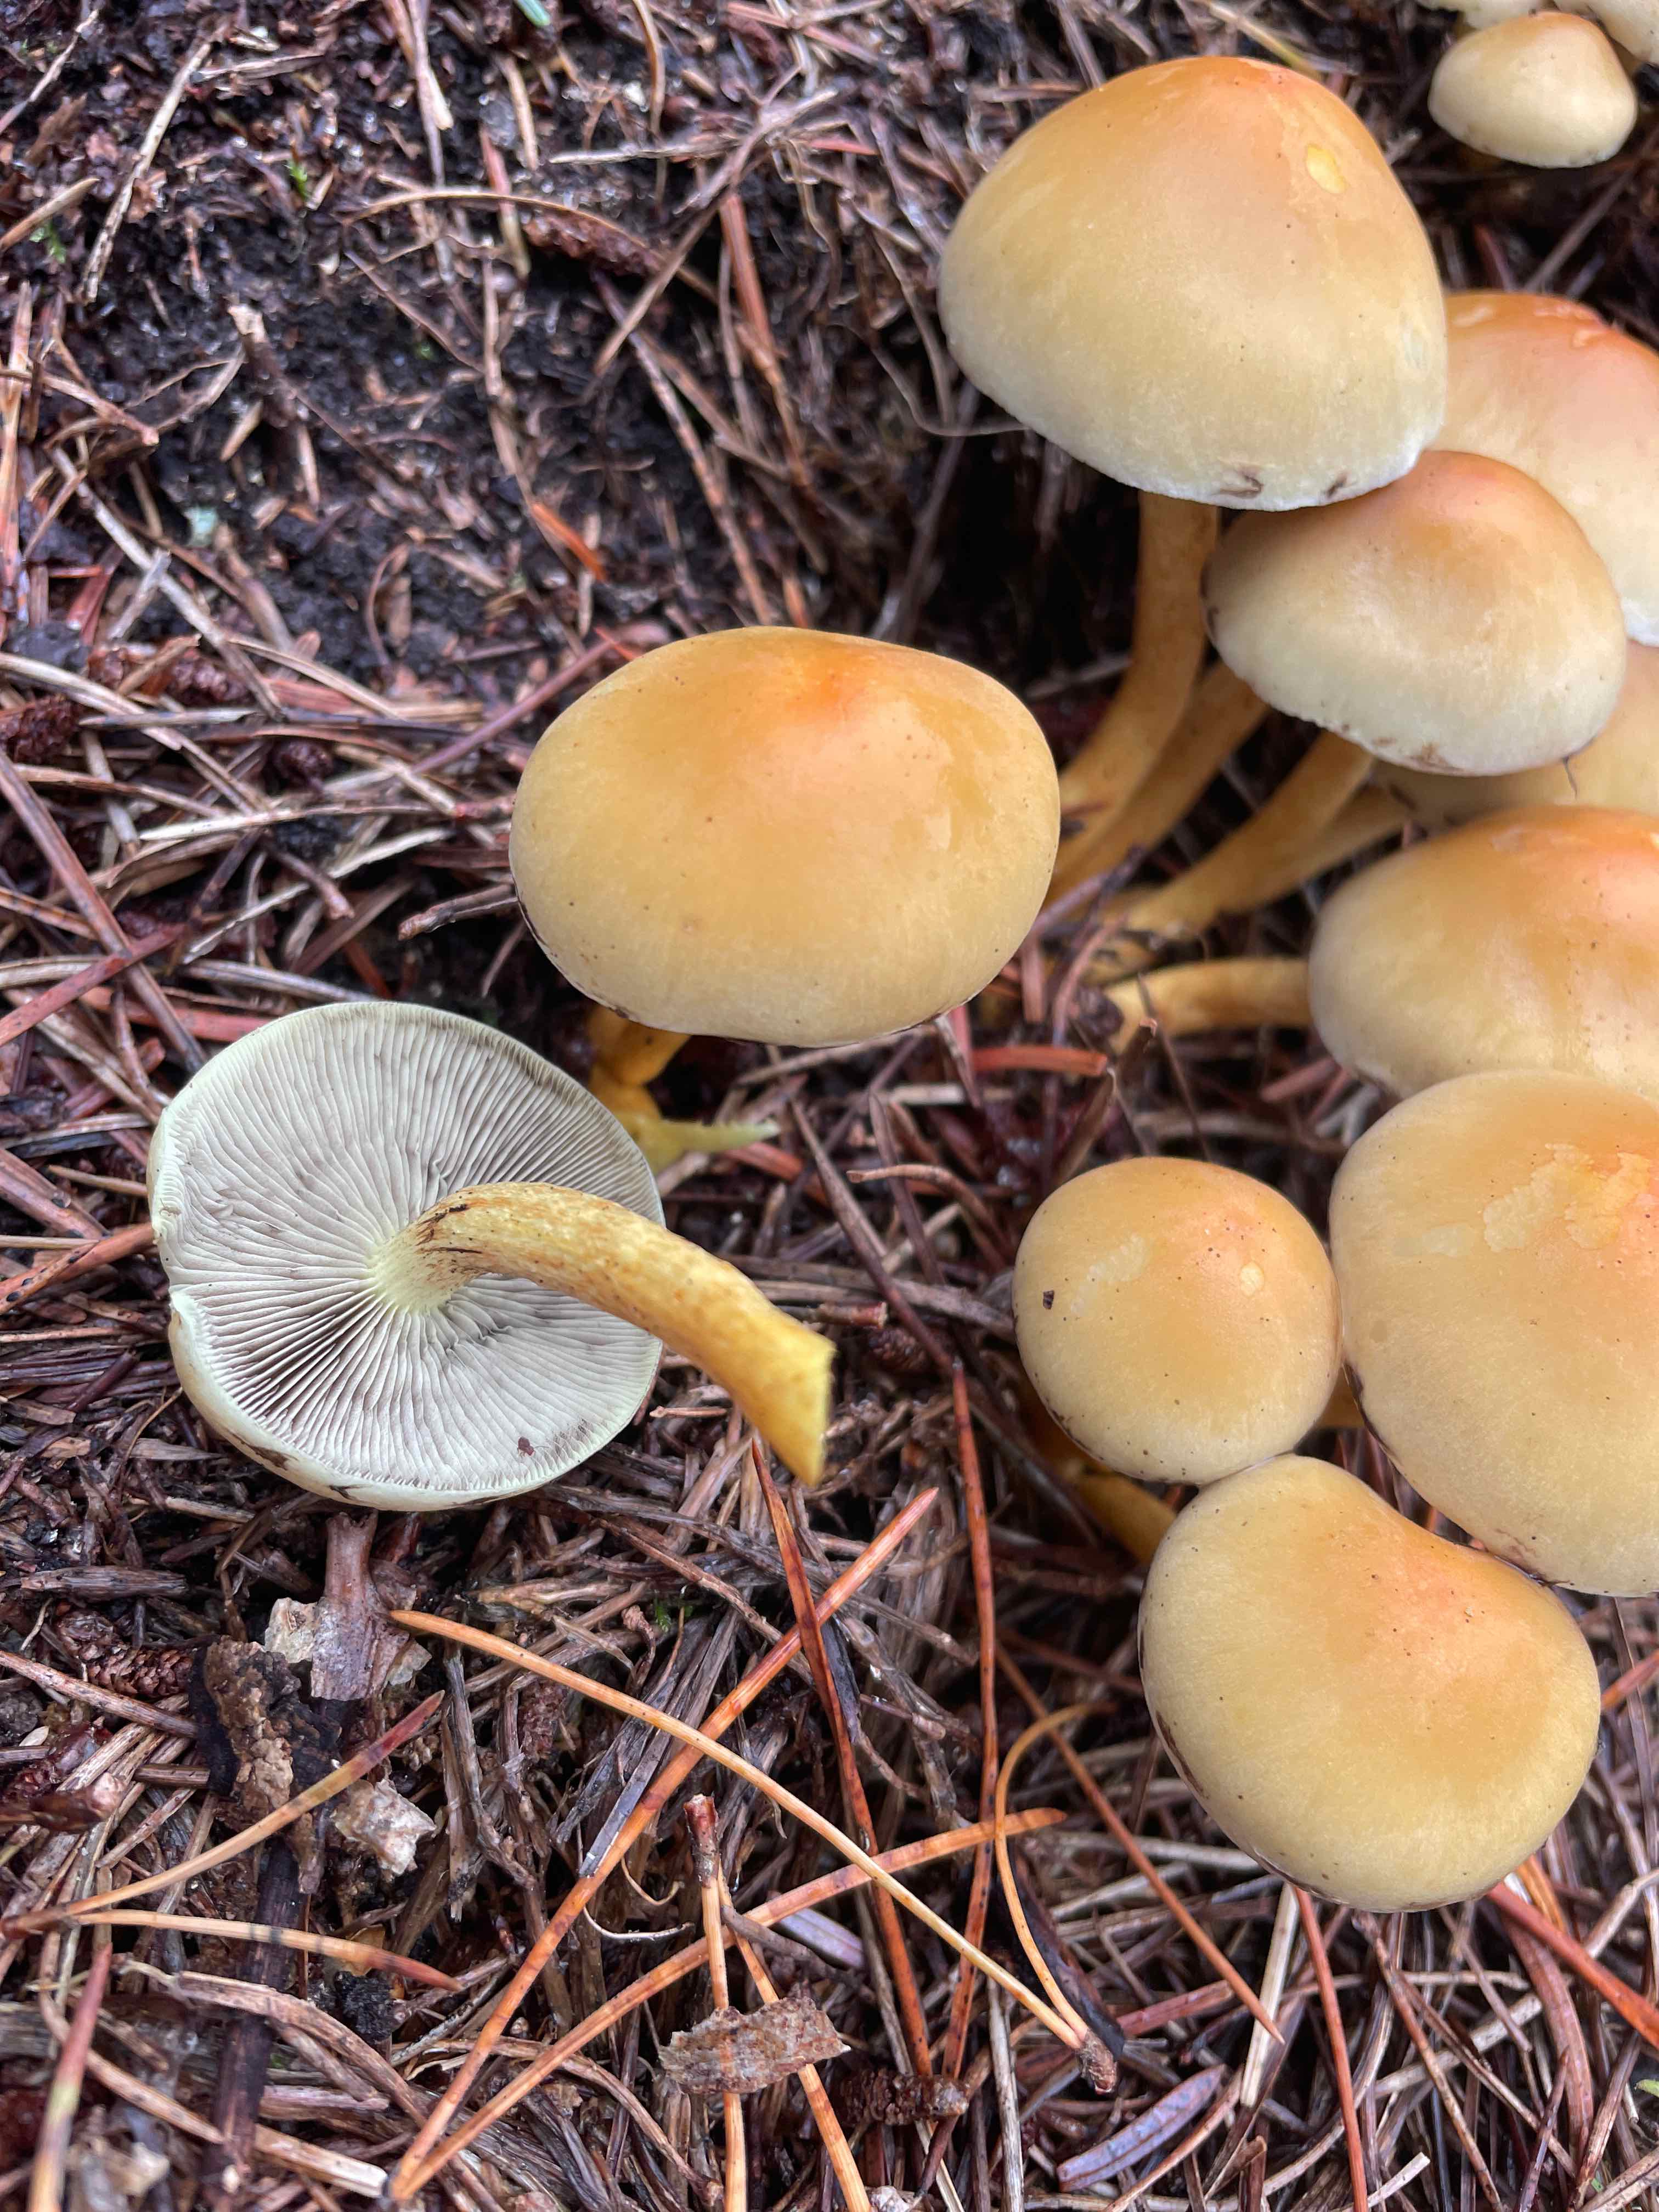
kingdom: Fungi
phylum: Basidiomycota
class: Agaricomycetes
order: Agaricales
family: Strophariaceae
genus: Hypholoma
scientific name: Hypholoma capnoides
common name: gran-svovlhat
